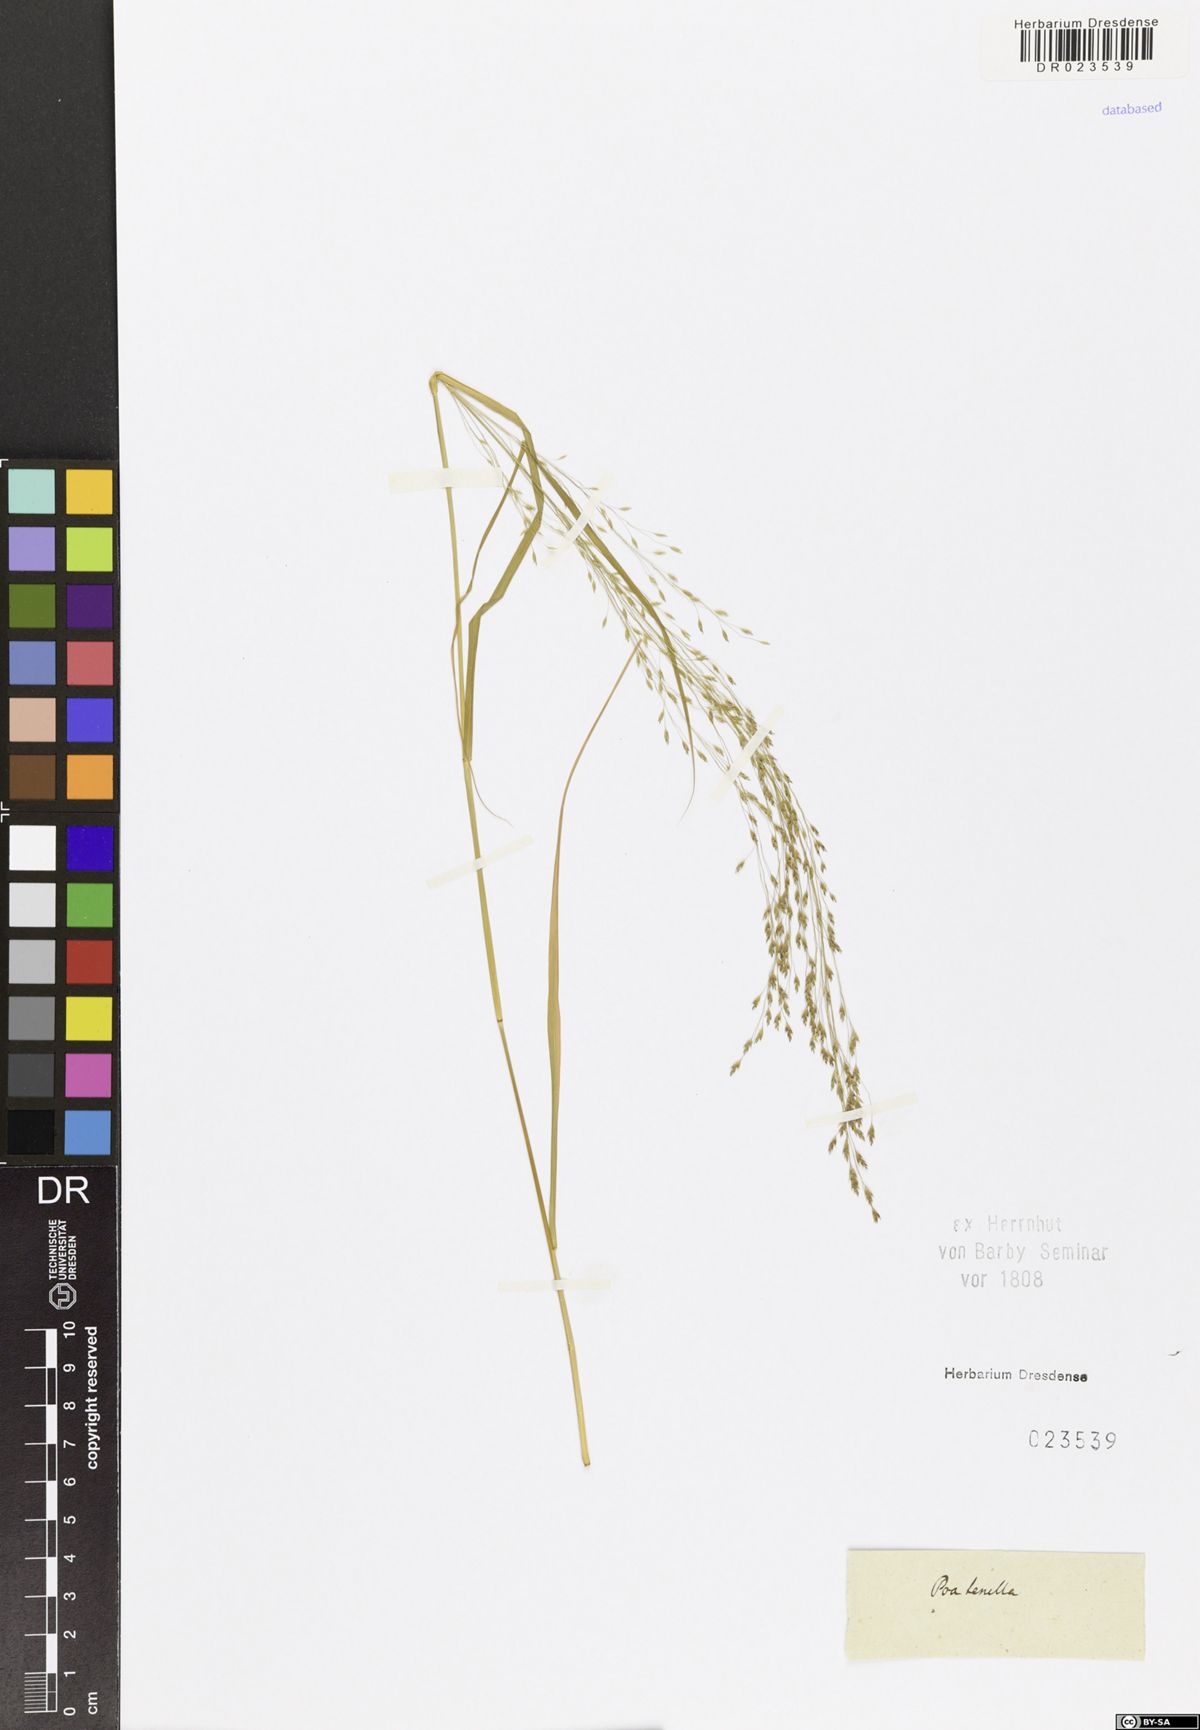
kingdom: Plantae
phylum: Tracheophyta
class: Liliopsida
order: Poales
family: Poaceae
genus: Eragrostis
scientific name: Eragrostis viscosa
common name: Sticky love grass
